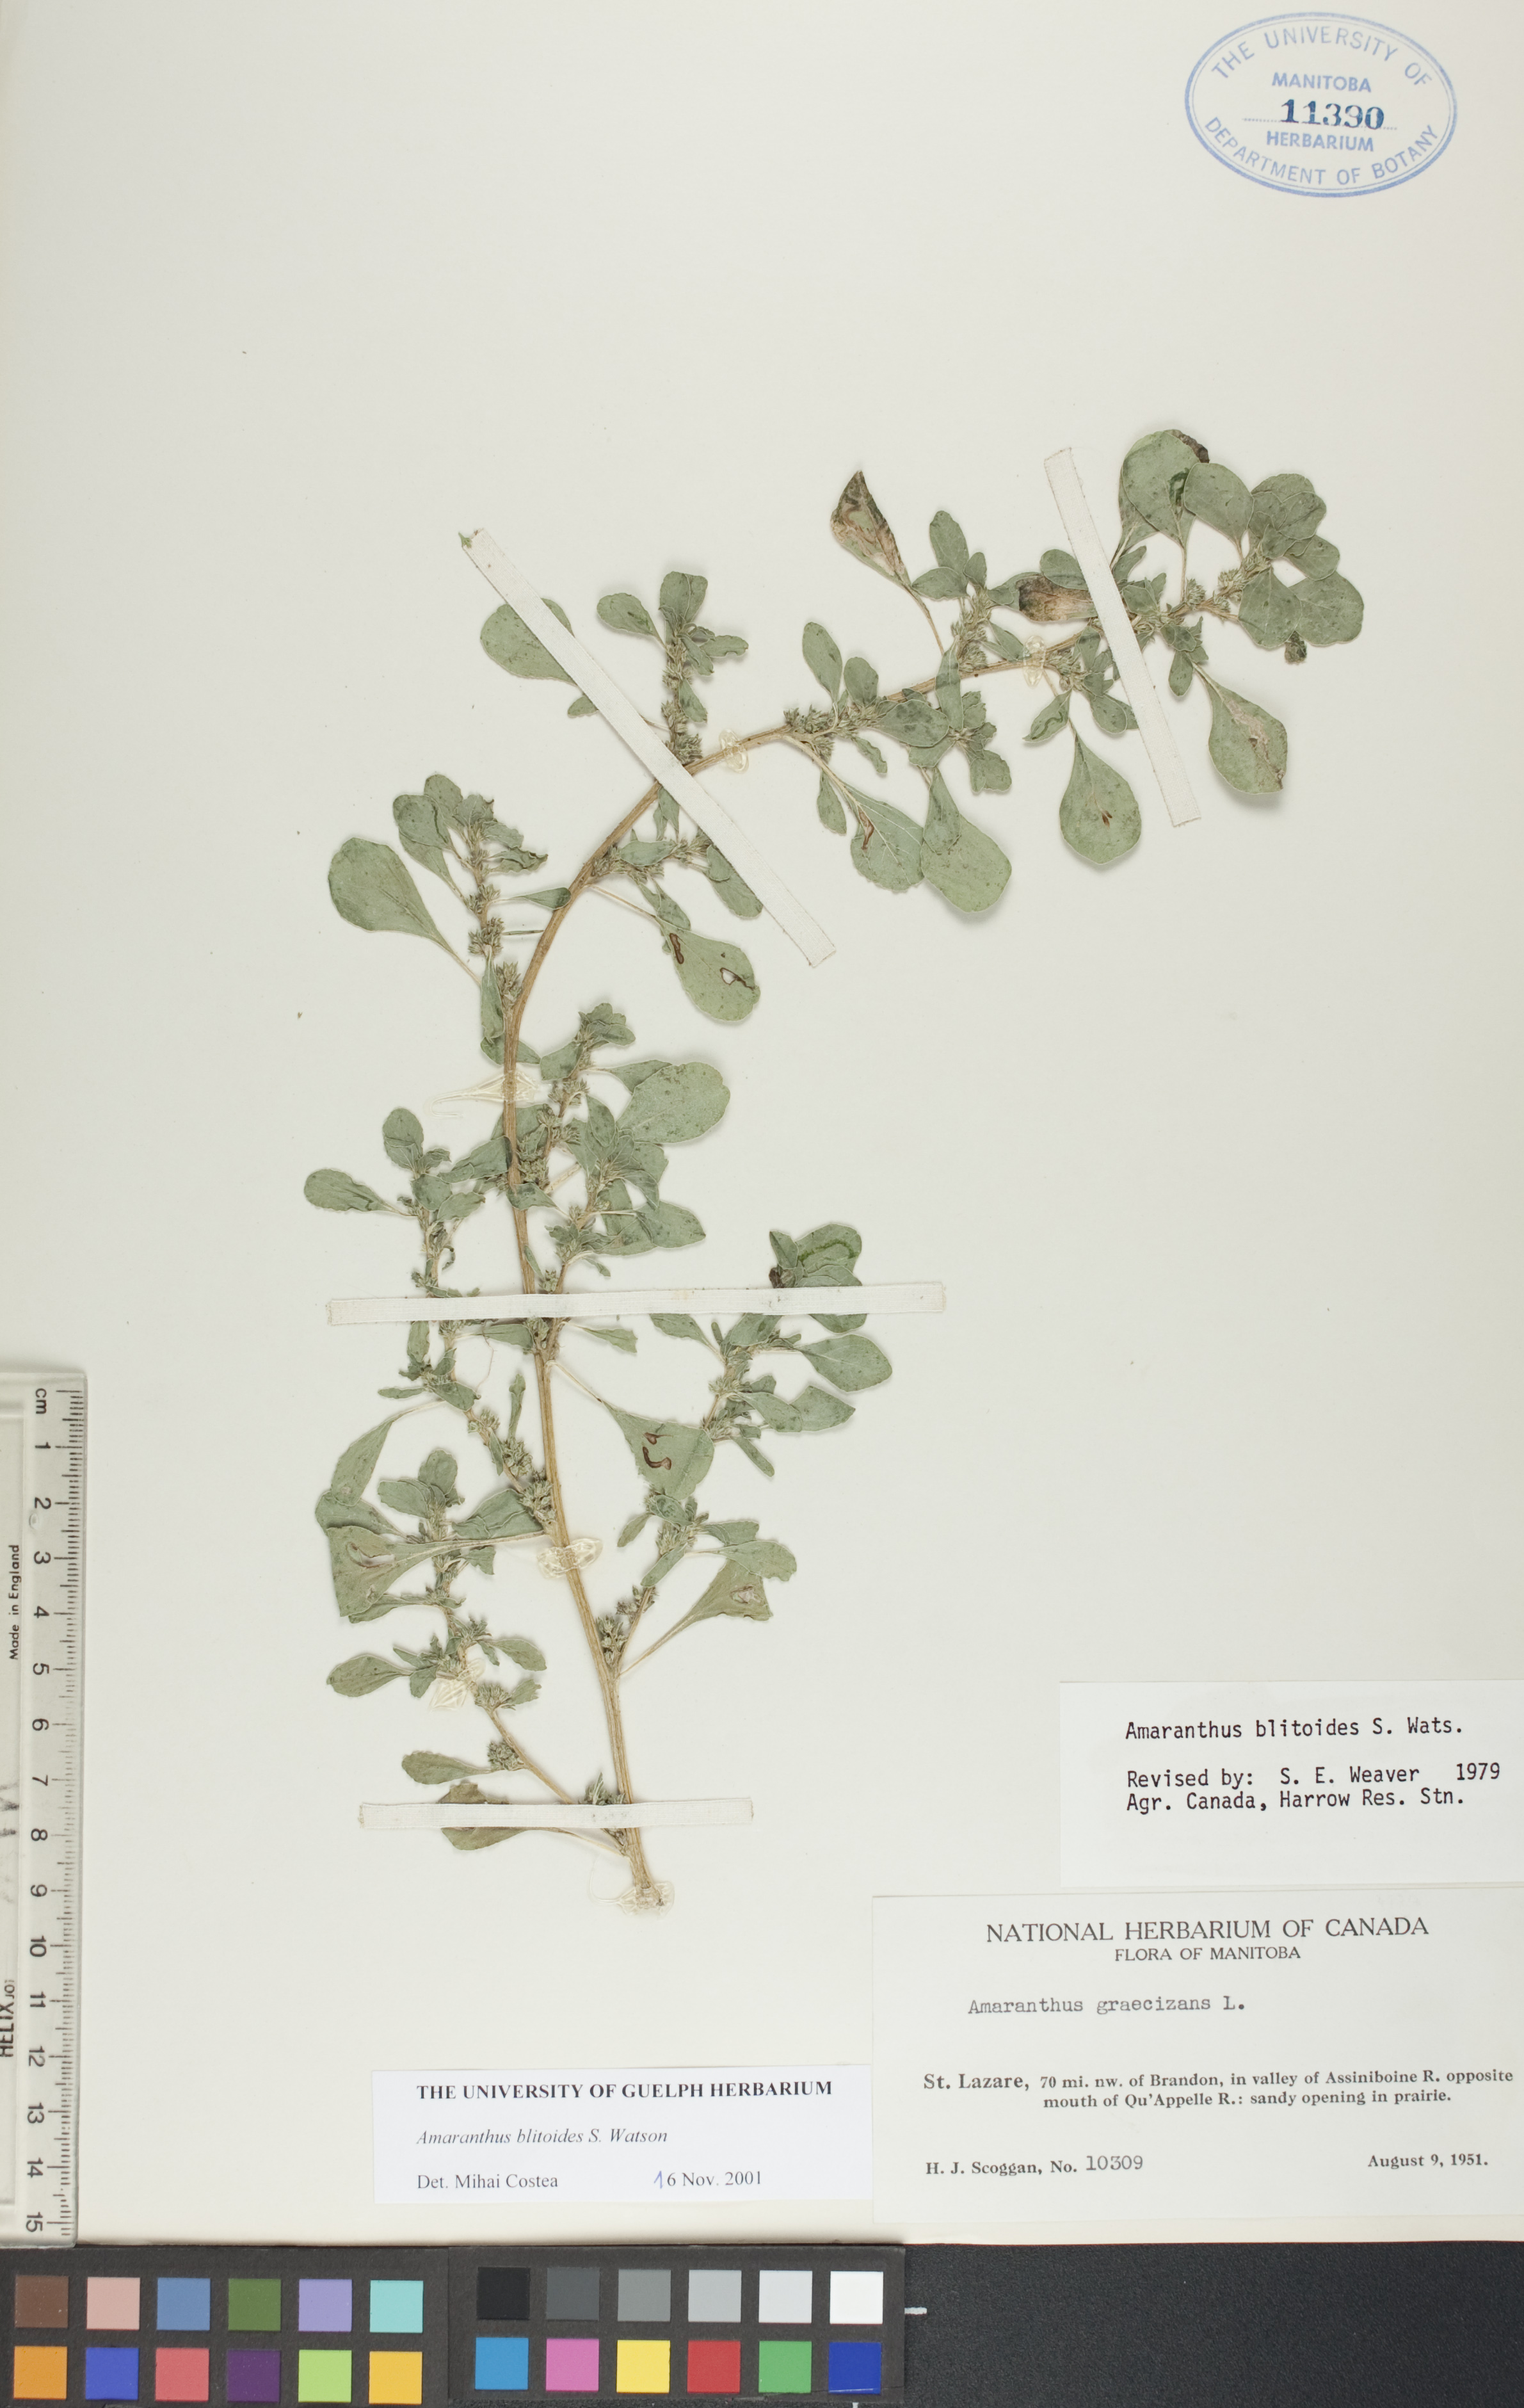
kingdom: Plantae
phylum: Tracheophyta
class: Magnoliopsida
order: Caryophyllales
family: Amaranthaceae
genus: Amaranthus
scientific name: Amaranthus blitoides
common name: Prostrate pigweed
